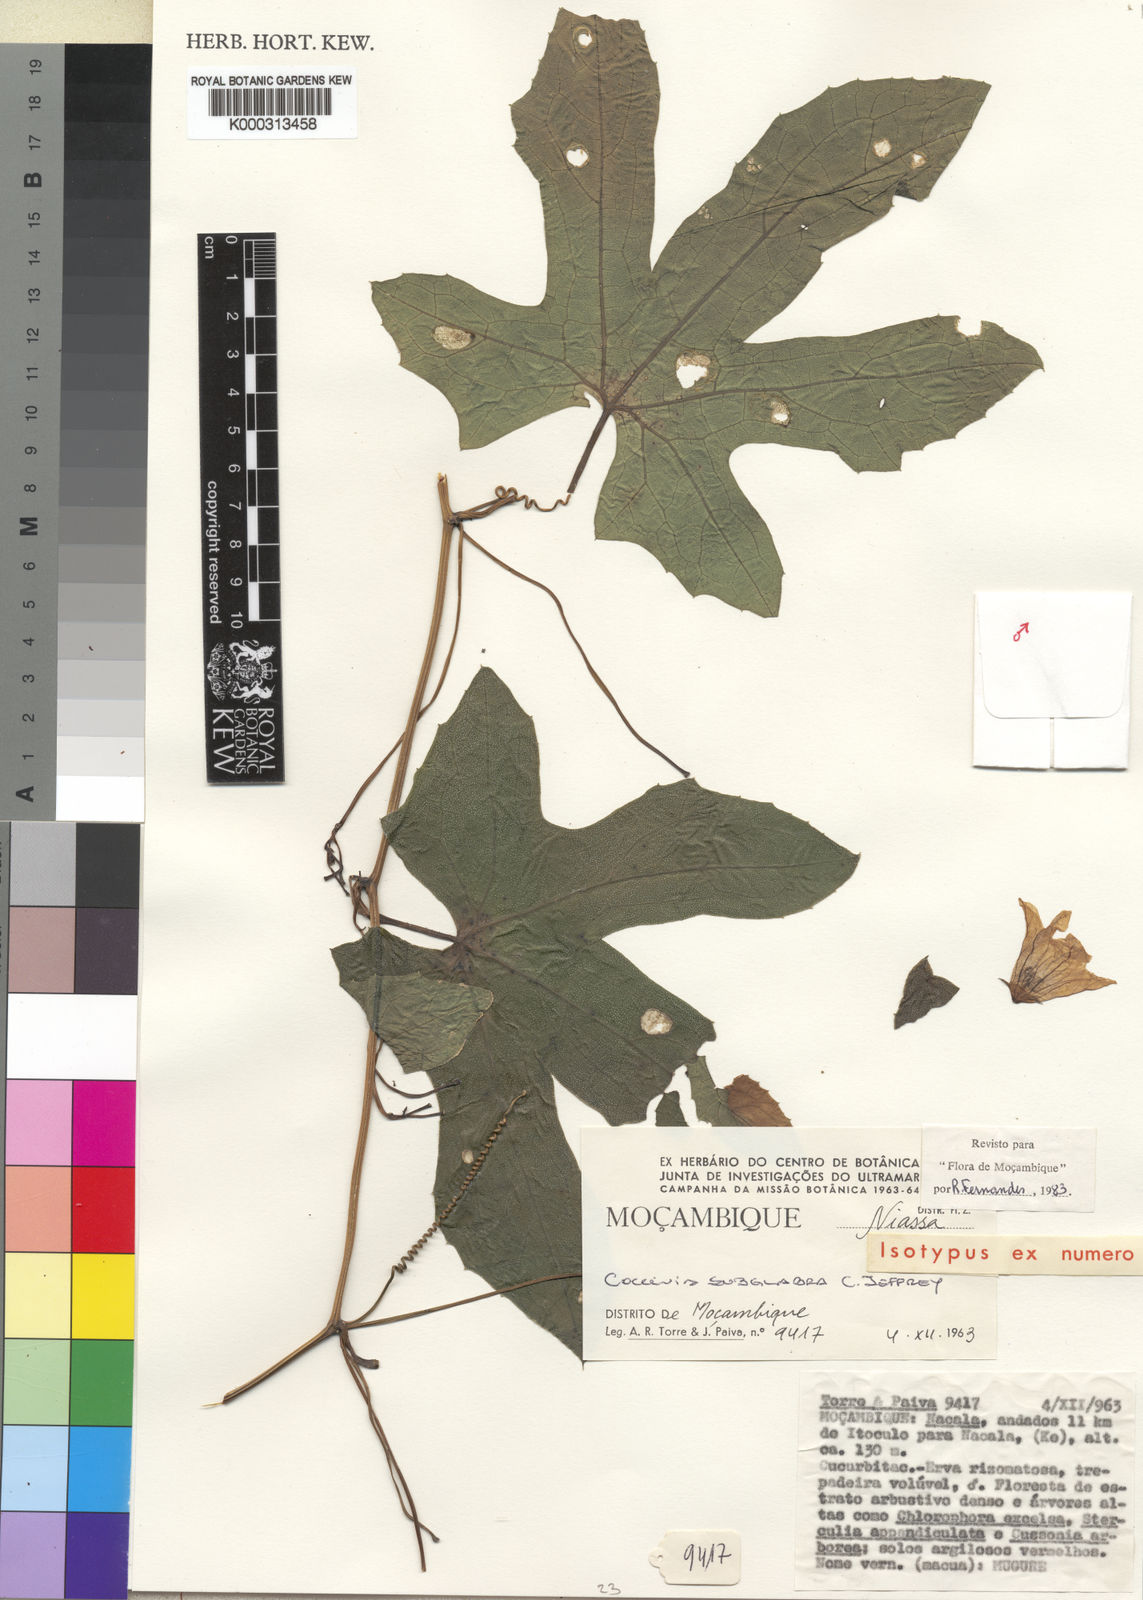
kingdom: Plantae
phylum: Tracheophyta
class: Magnoliopsida
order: Cucurbitales
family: Cucurbitaceae
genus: Coccinia
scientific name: Coccinia senensis
